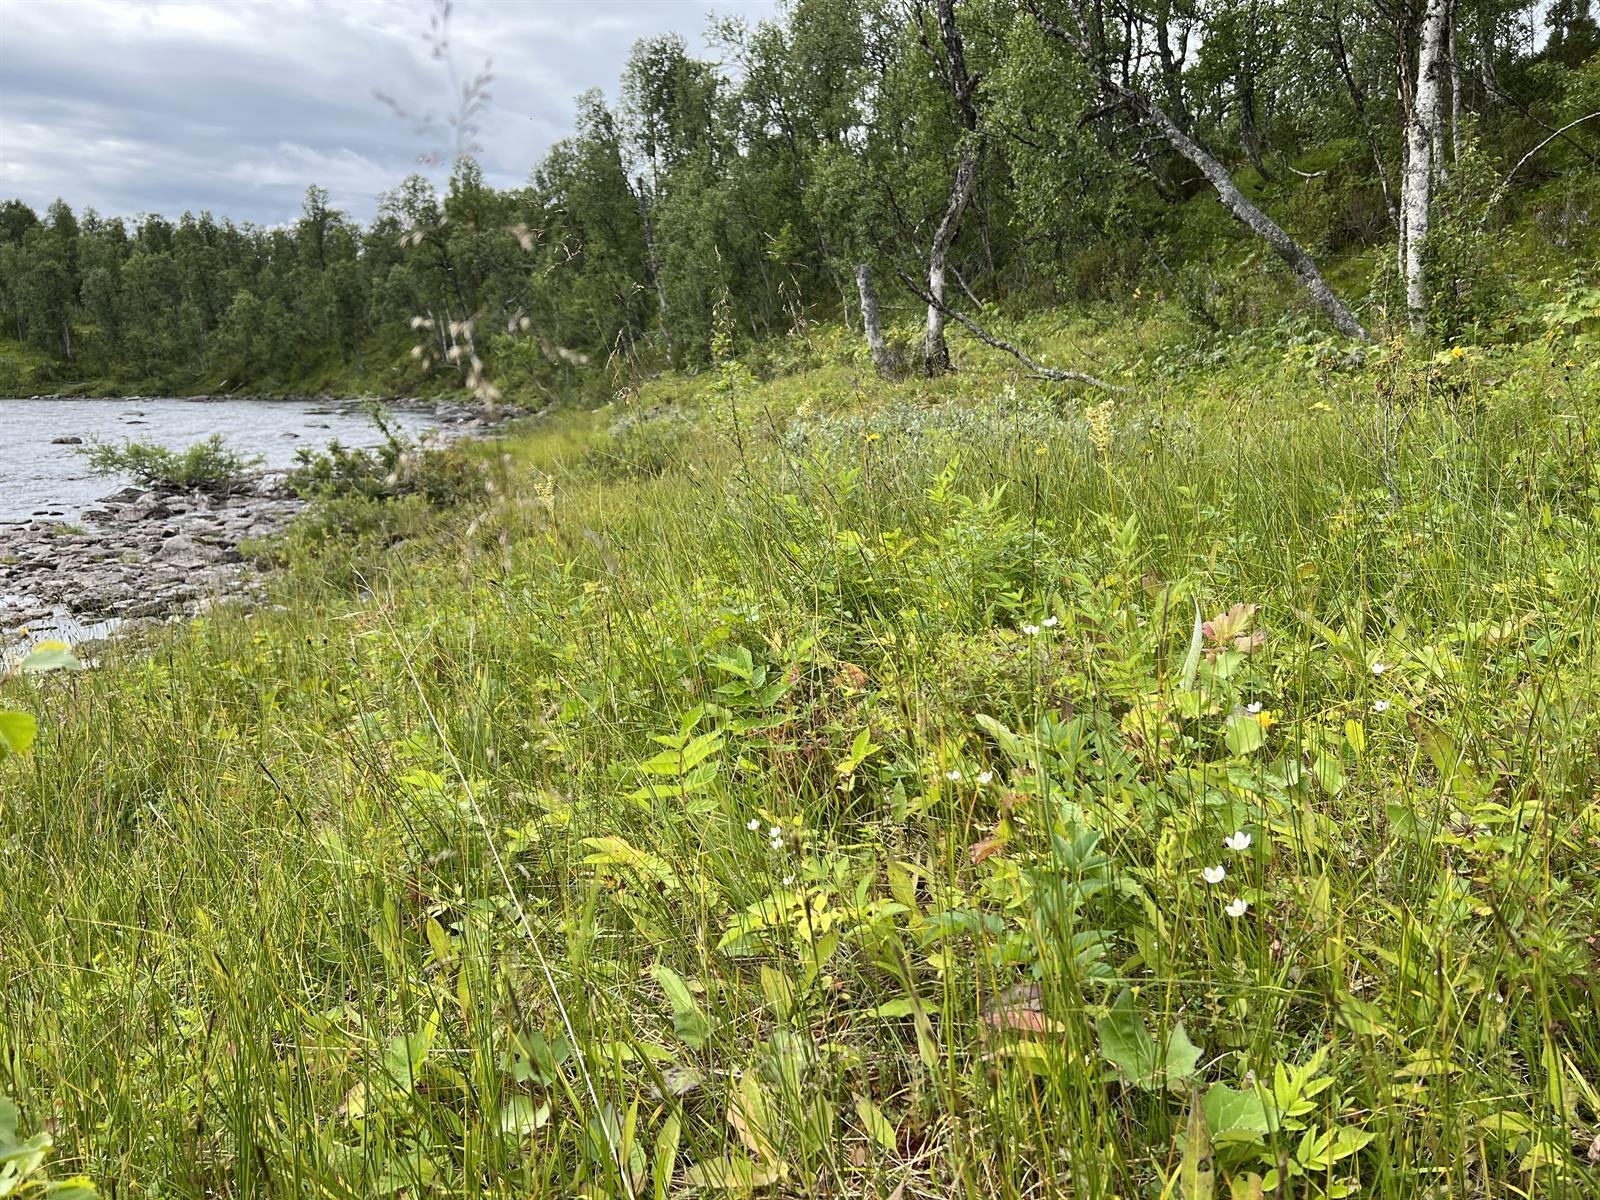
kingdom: Fungi
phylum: Ascomycota
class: Pezizomycetes
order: Pezizales
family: Helvellaceae
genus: Helvella
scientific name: Helvella palustris
